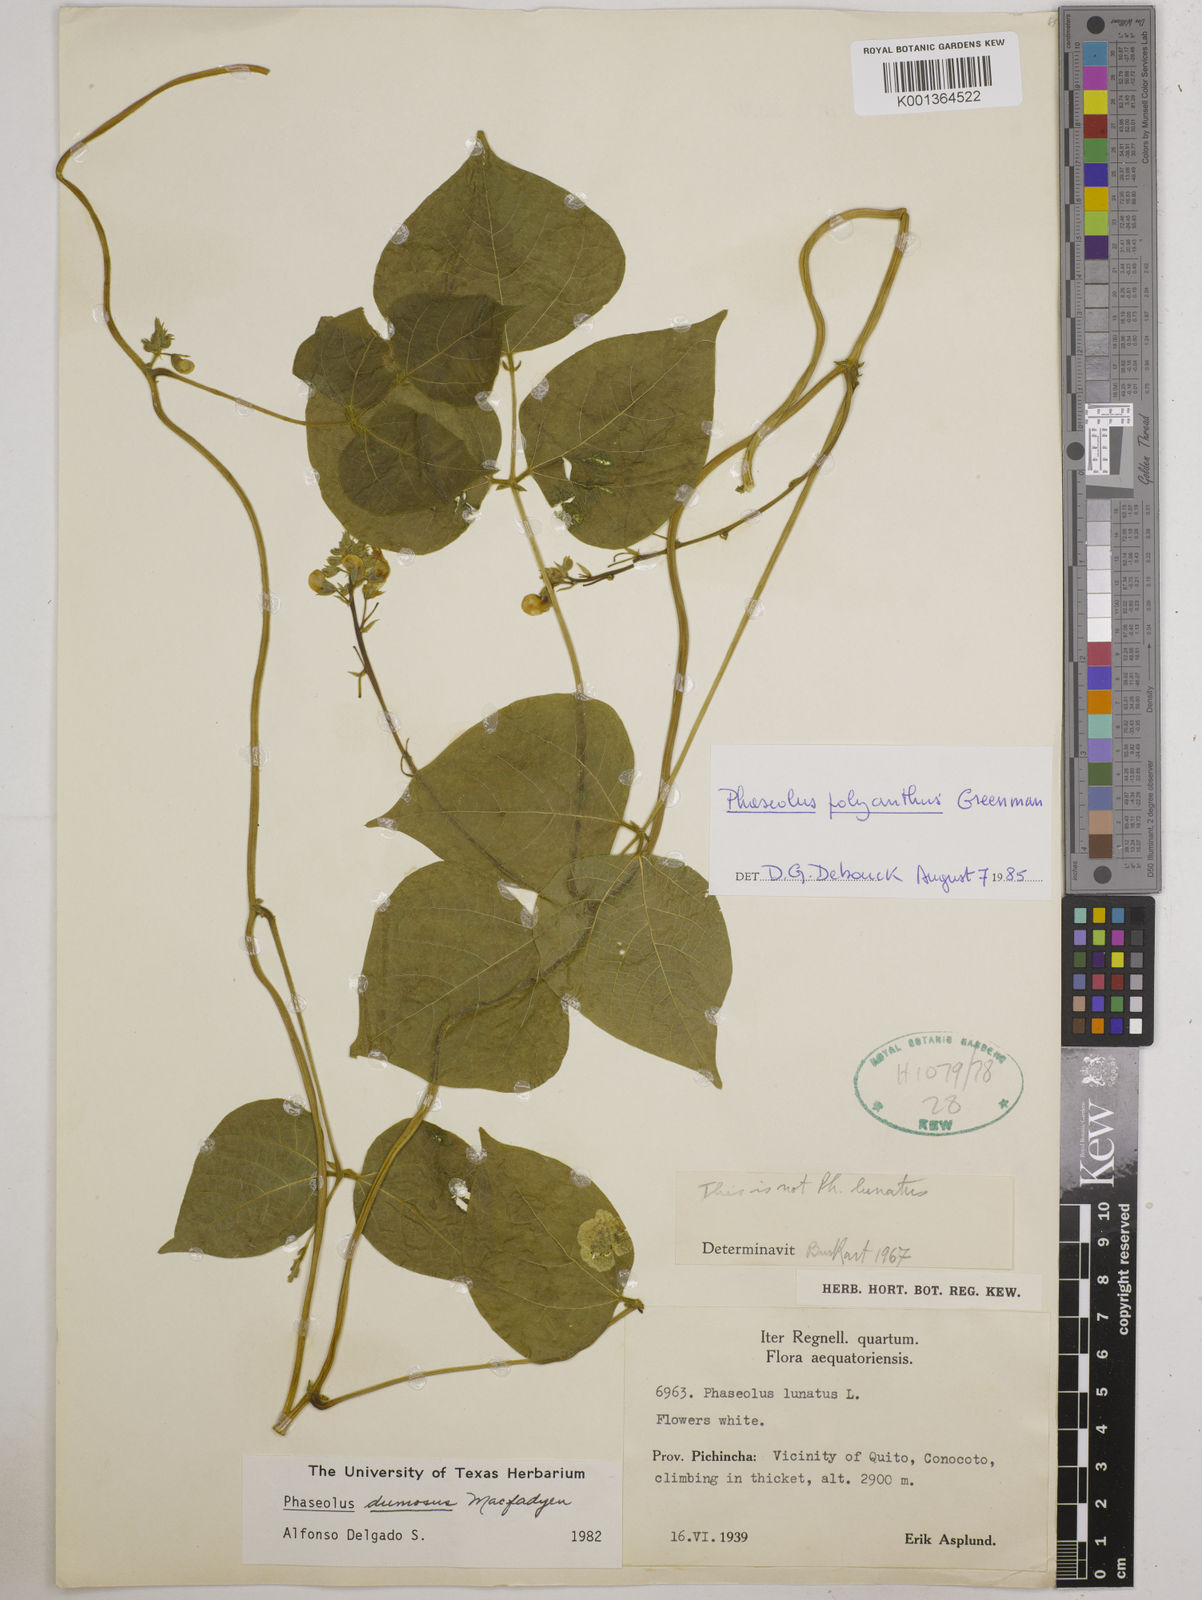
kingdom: Plantae
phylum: Tracheophyta
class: Magnoliopsida
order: Fabales
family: Fabaceae
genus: Phaseolus
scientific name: Phaseolus dumosus
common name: Year bean
